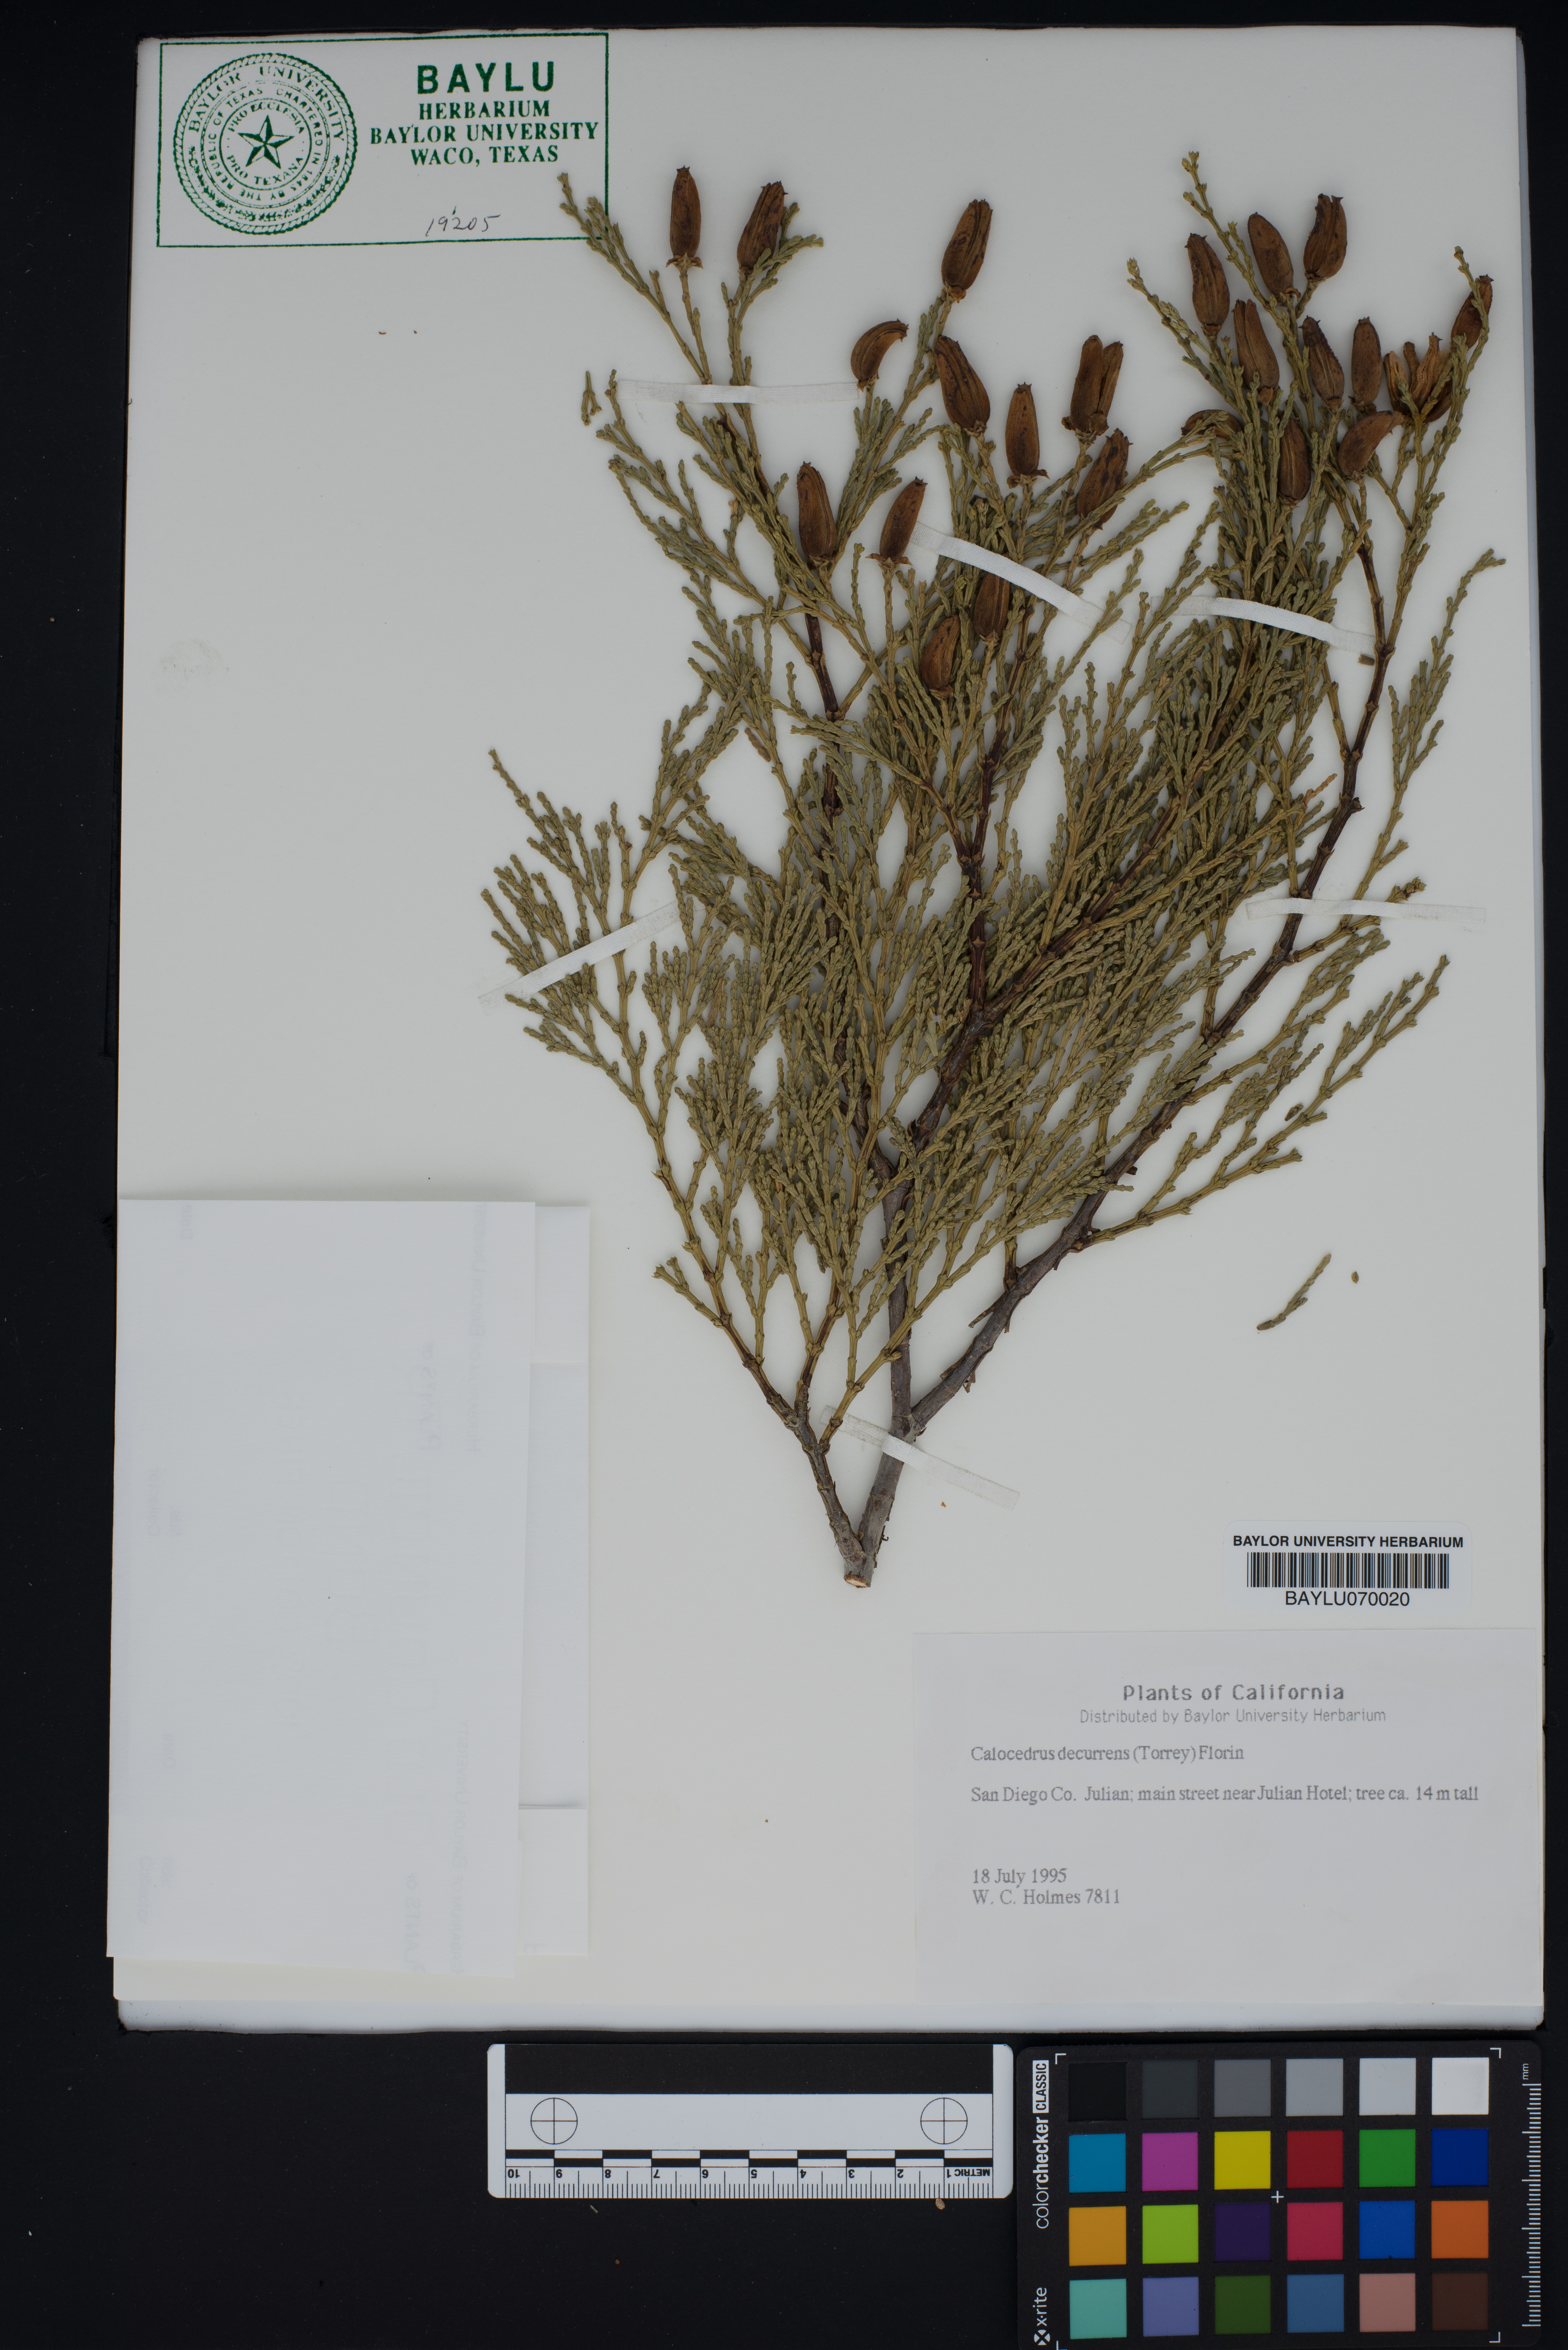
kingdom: Plantae
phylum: Tracheophyta
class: Pinopsida
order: Pinales
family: Cupressaceae
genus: Calocedrus
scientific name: Calocedrus decurrens
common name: Californian incense-cedar
